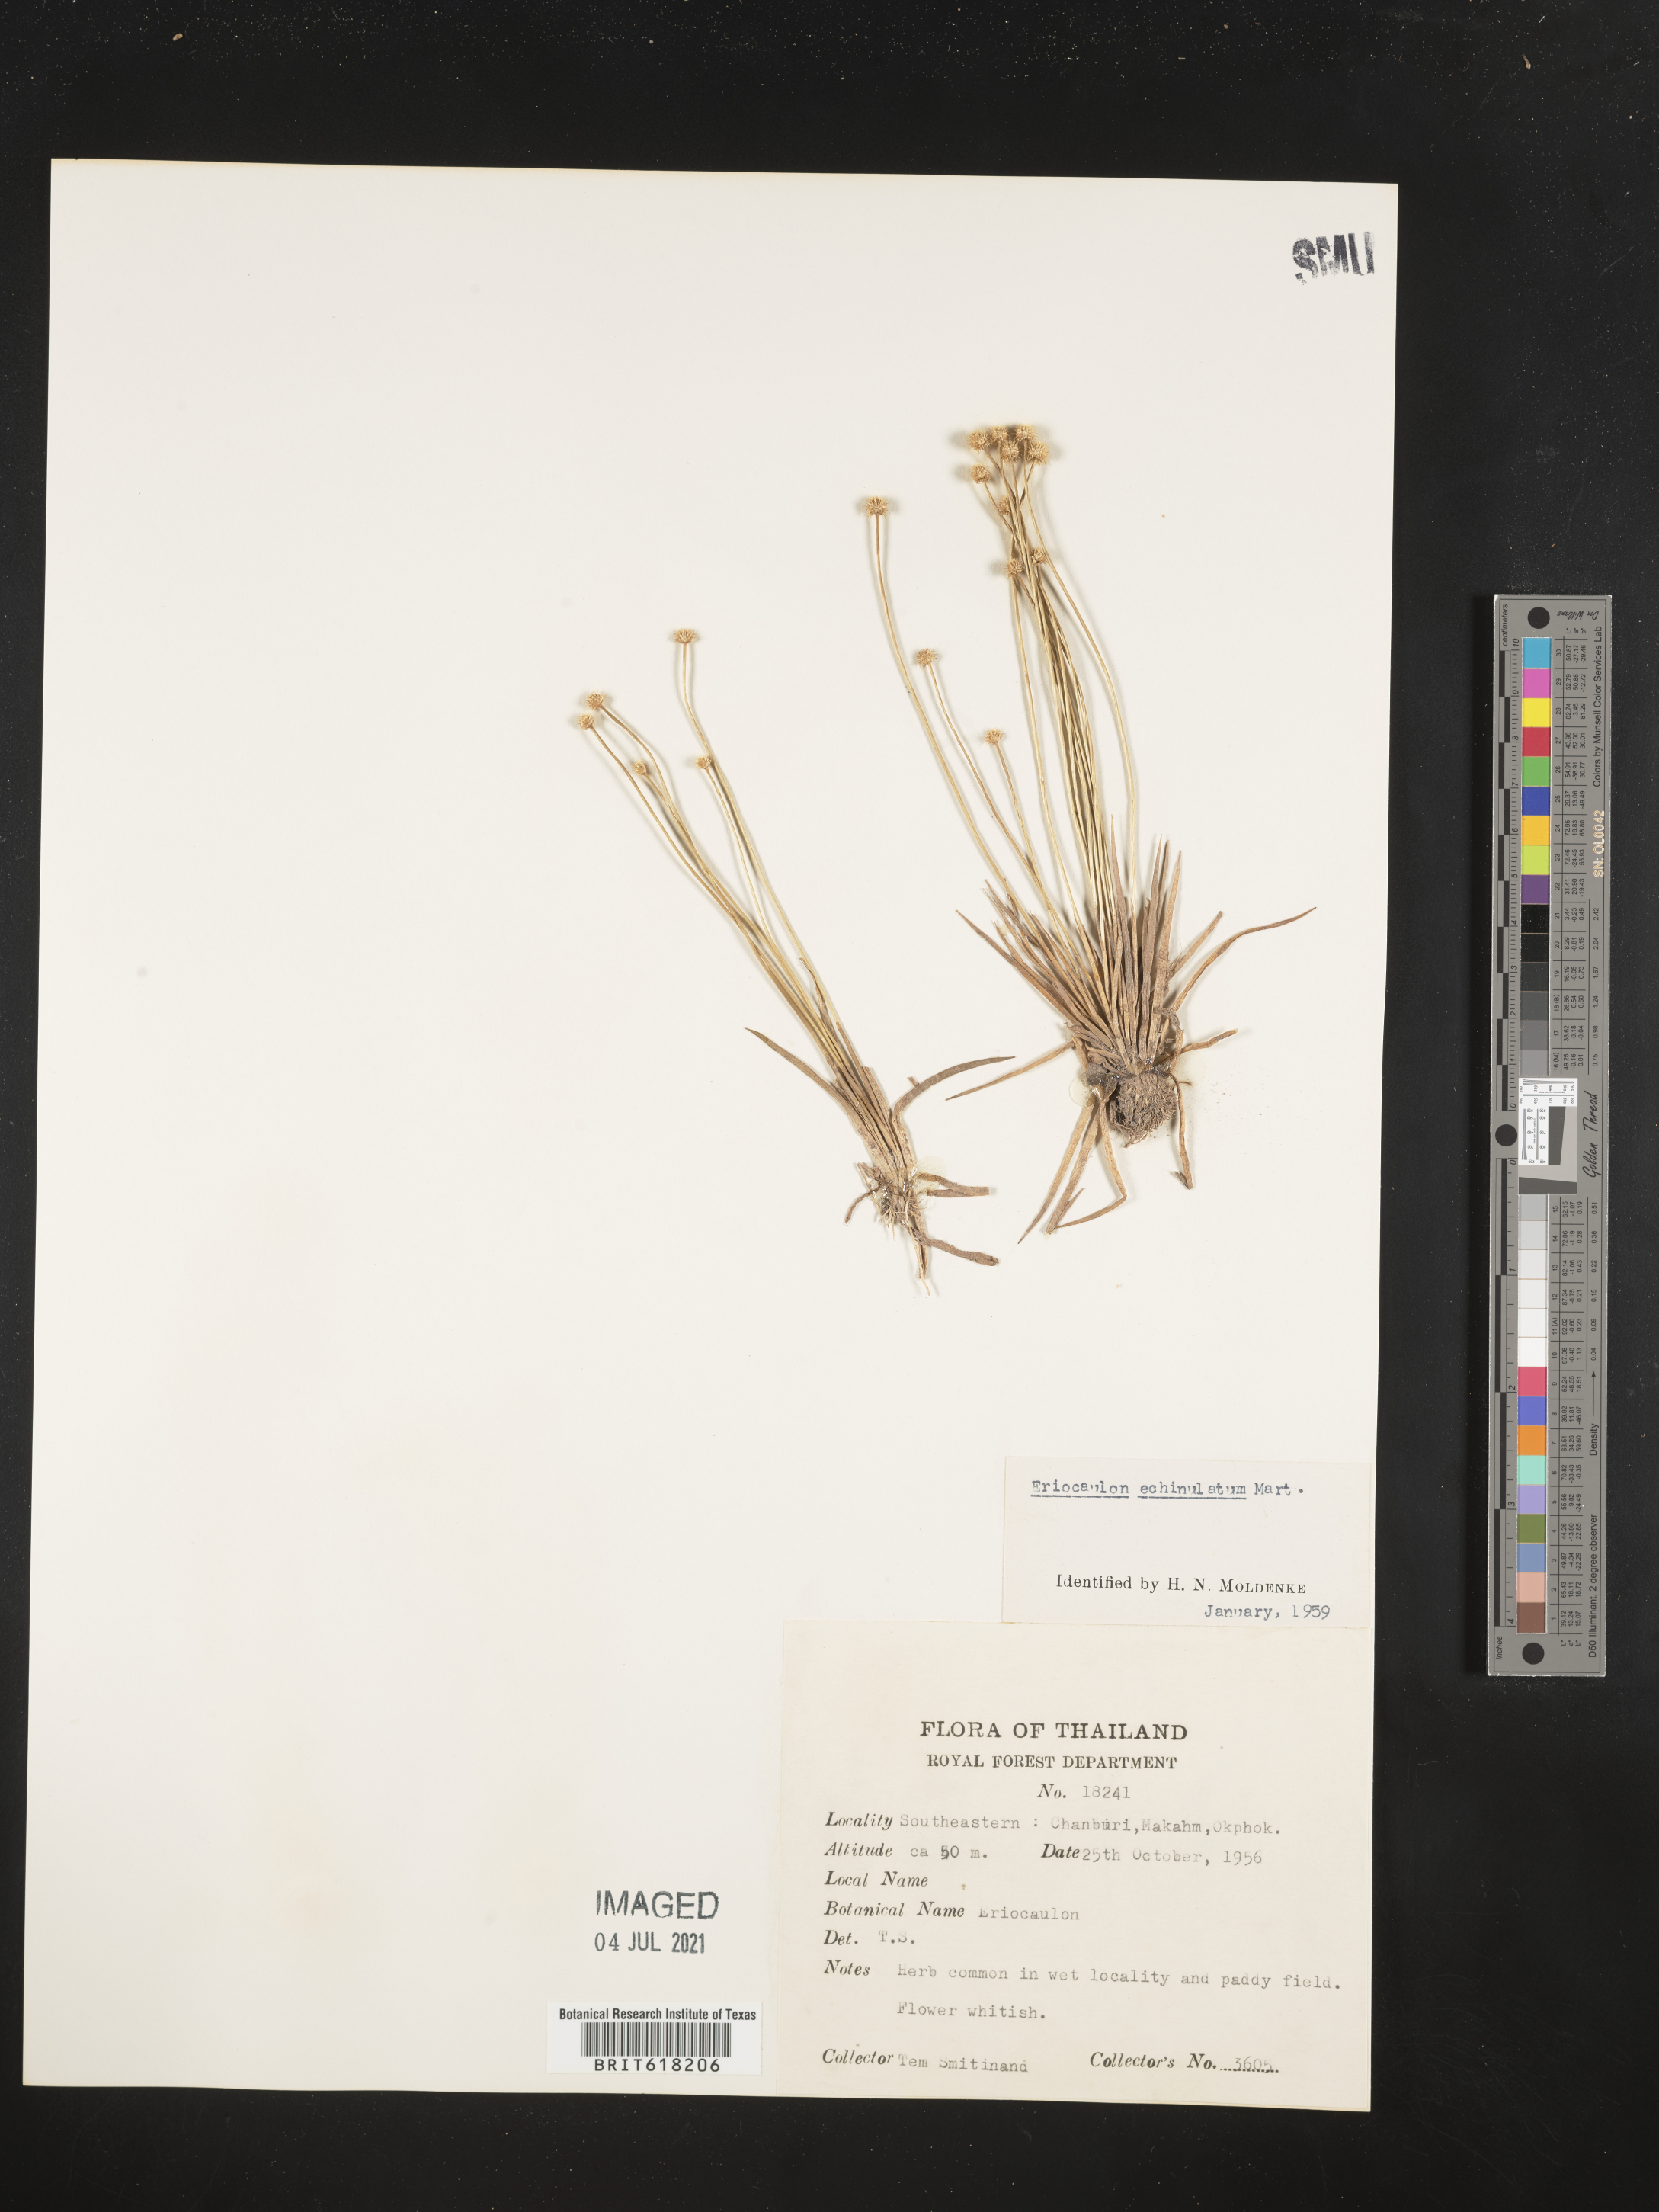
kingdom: Plantae
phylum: Tracheophyta
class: Liliopsida
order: Poales
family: Eriocaulaceae
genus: Eriocaulon
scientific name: Eriocaulon echinulatum
